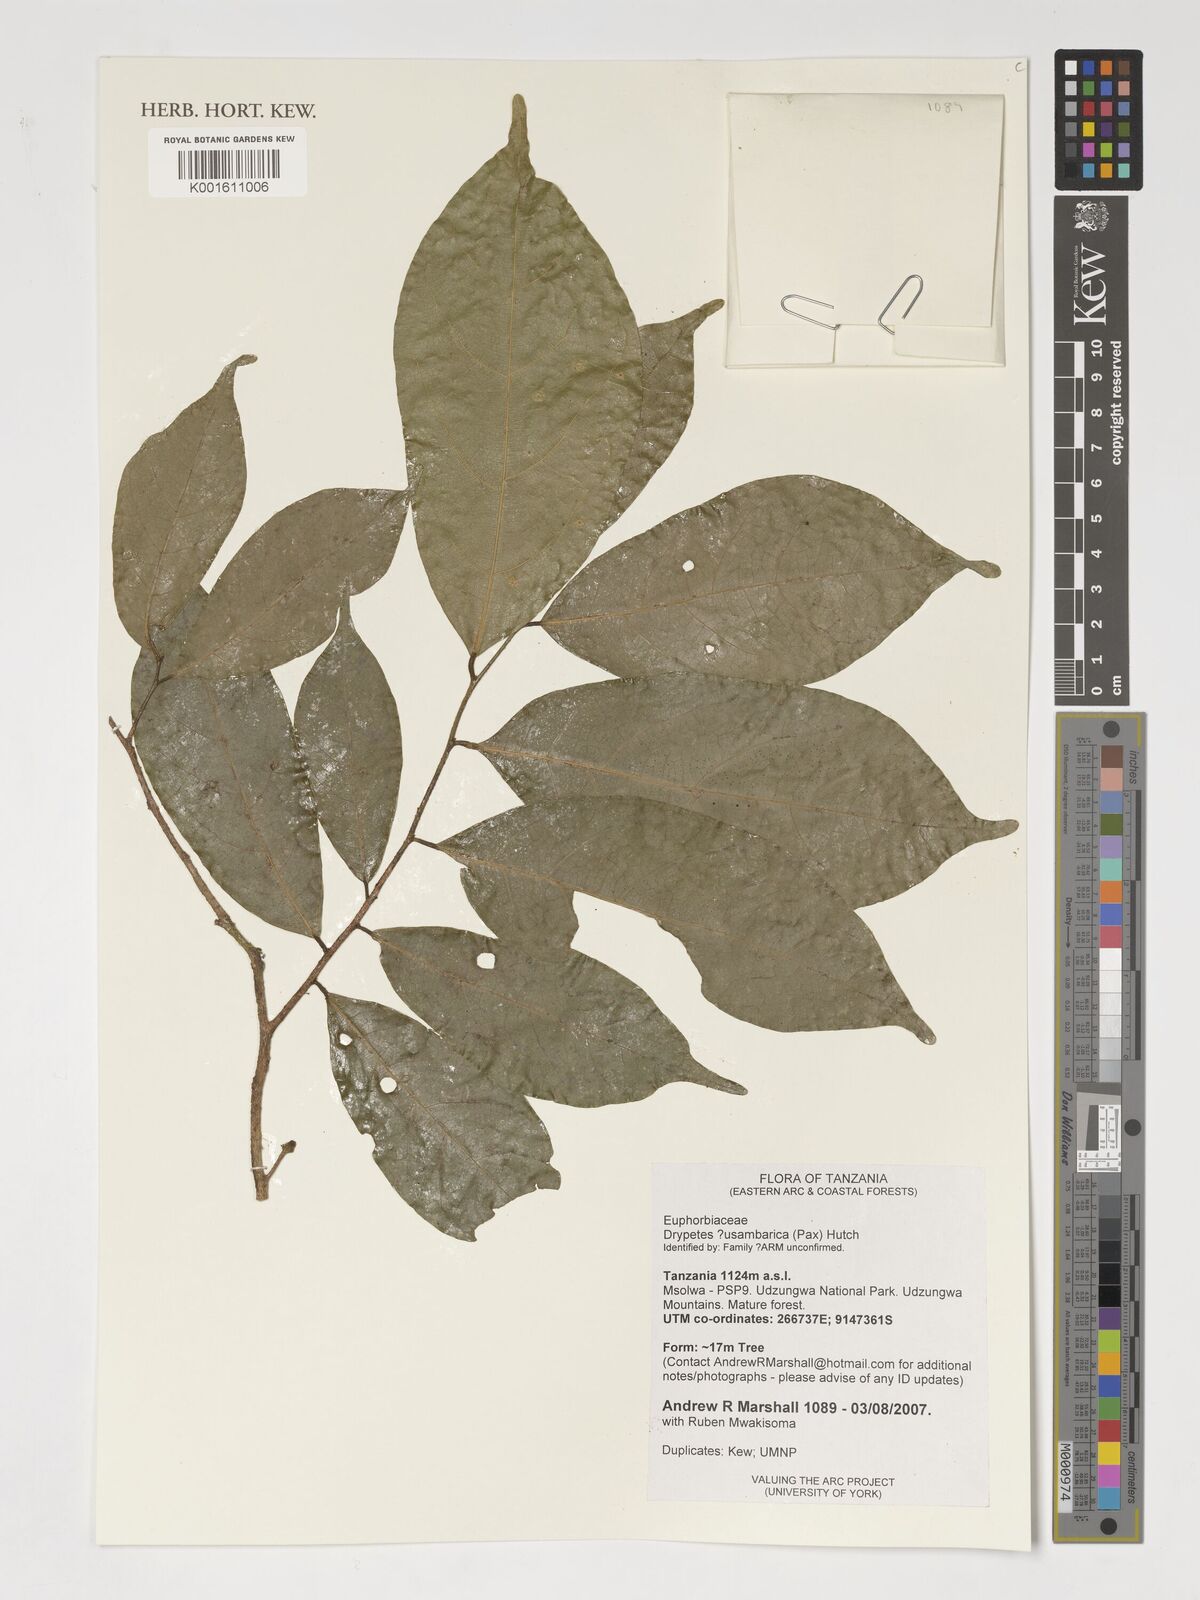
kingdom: Plantae
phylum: Tracheophyta
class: Magnoliopsida
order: Malpighiales
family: Putranjivaceae
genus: Drypetes
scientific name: Drypetes usambarica
